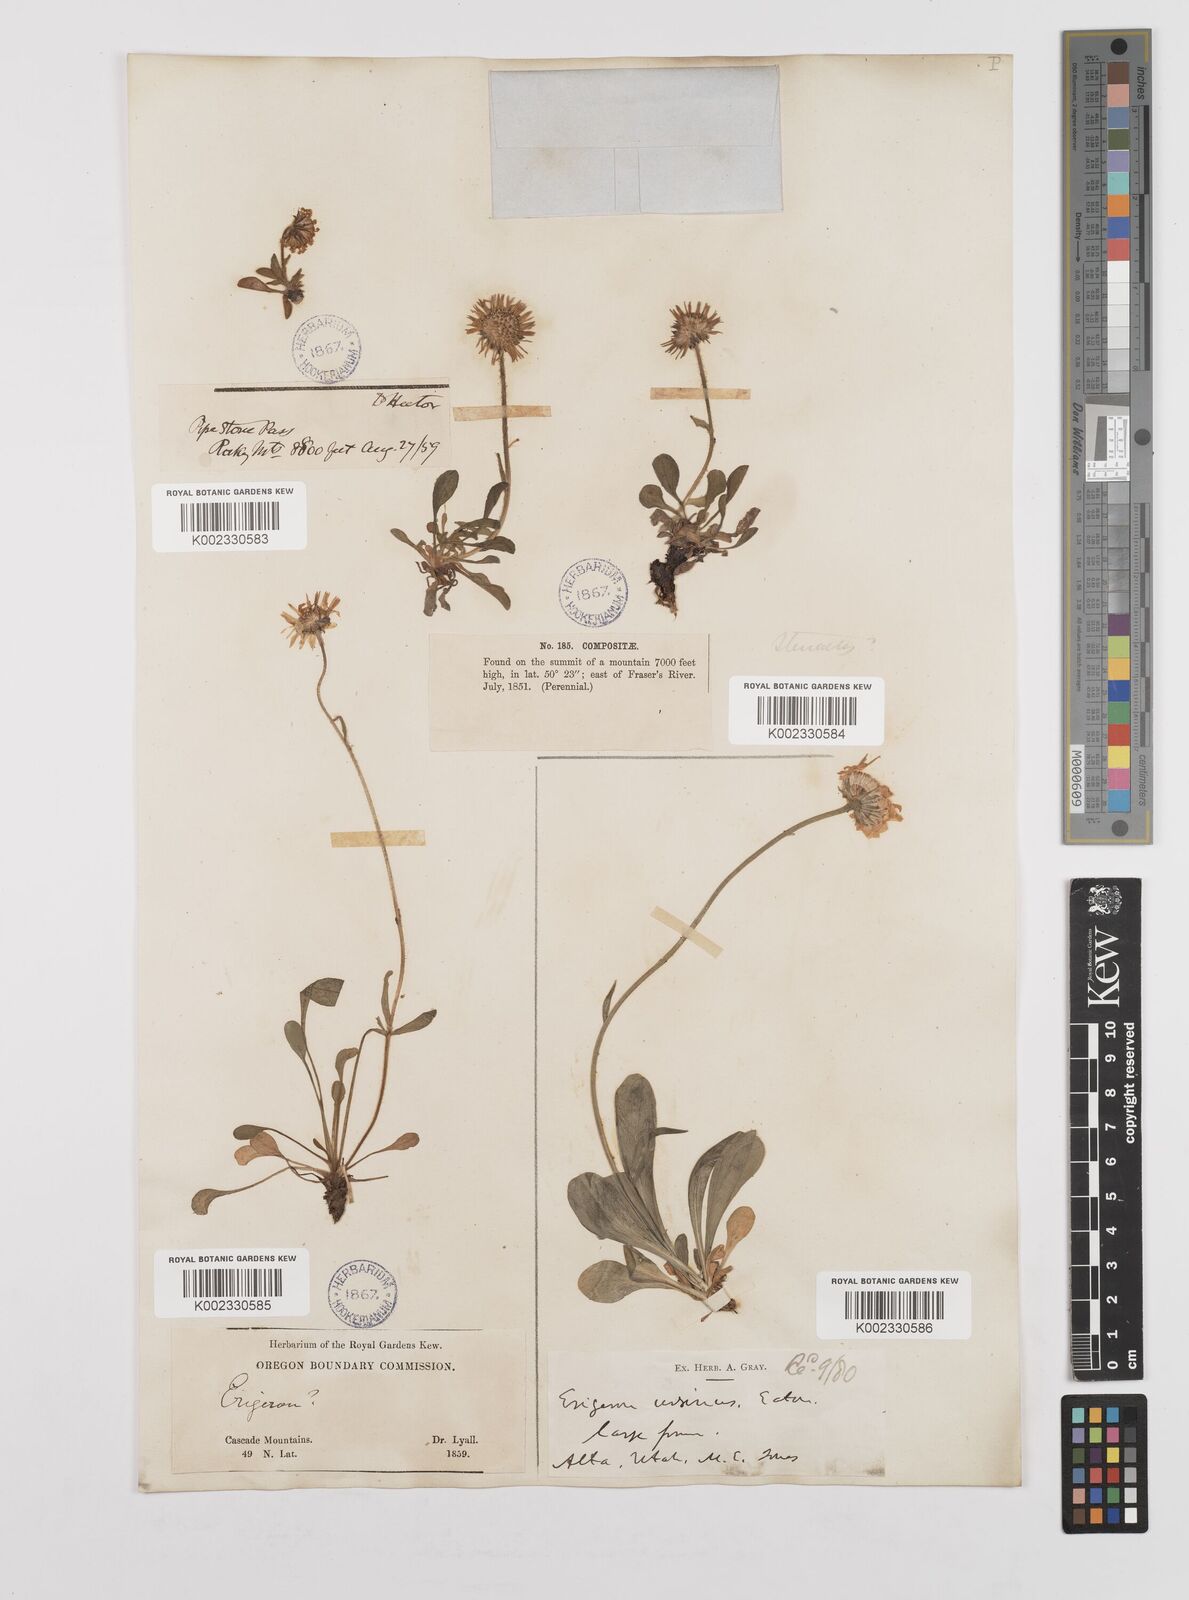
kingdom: Plantae
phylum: Tracheophyta
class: Magnoliopsida
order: Asterales
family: Asteraceae
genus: Erigeron
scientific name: Erigeron ursinus
